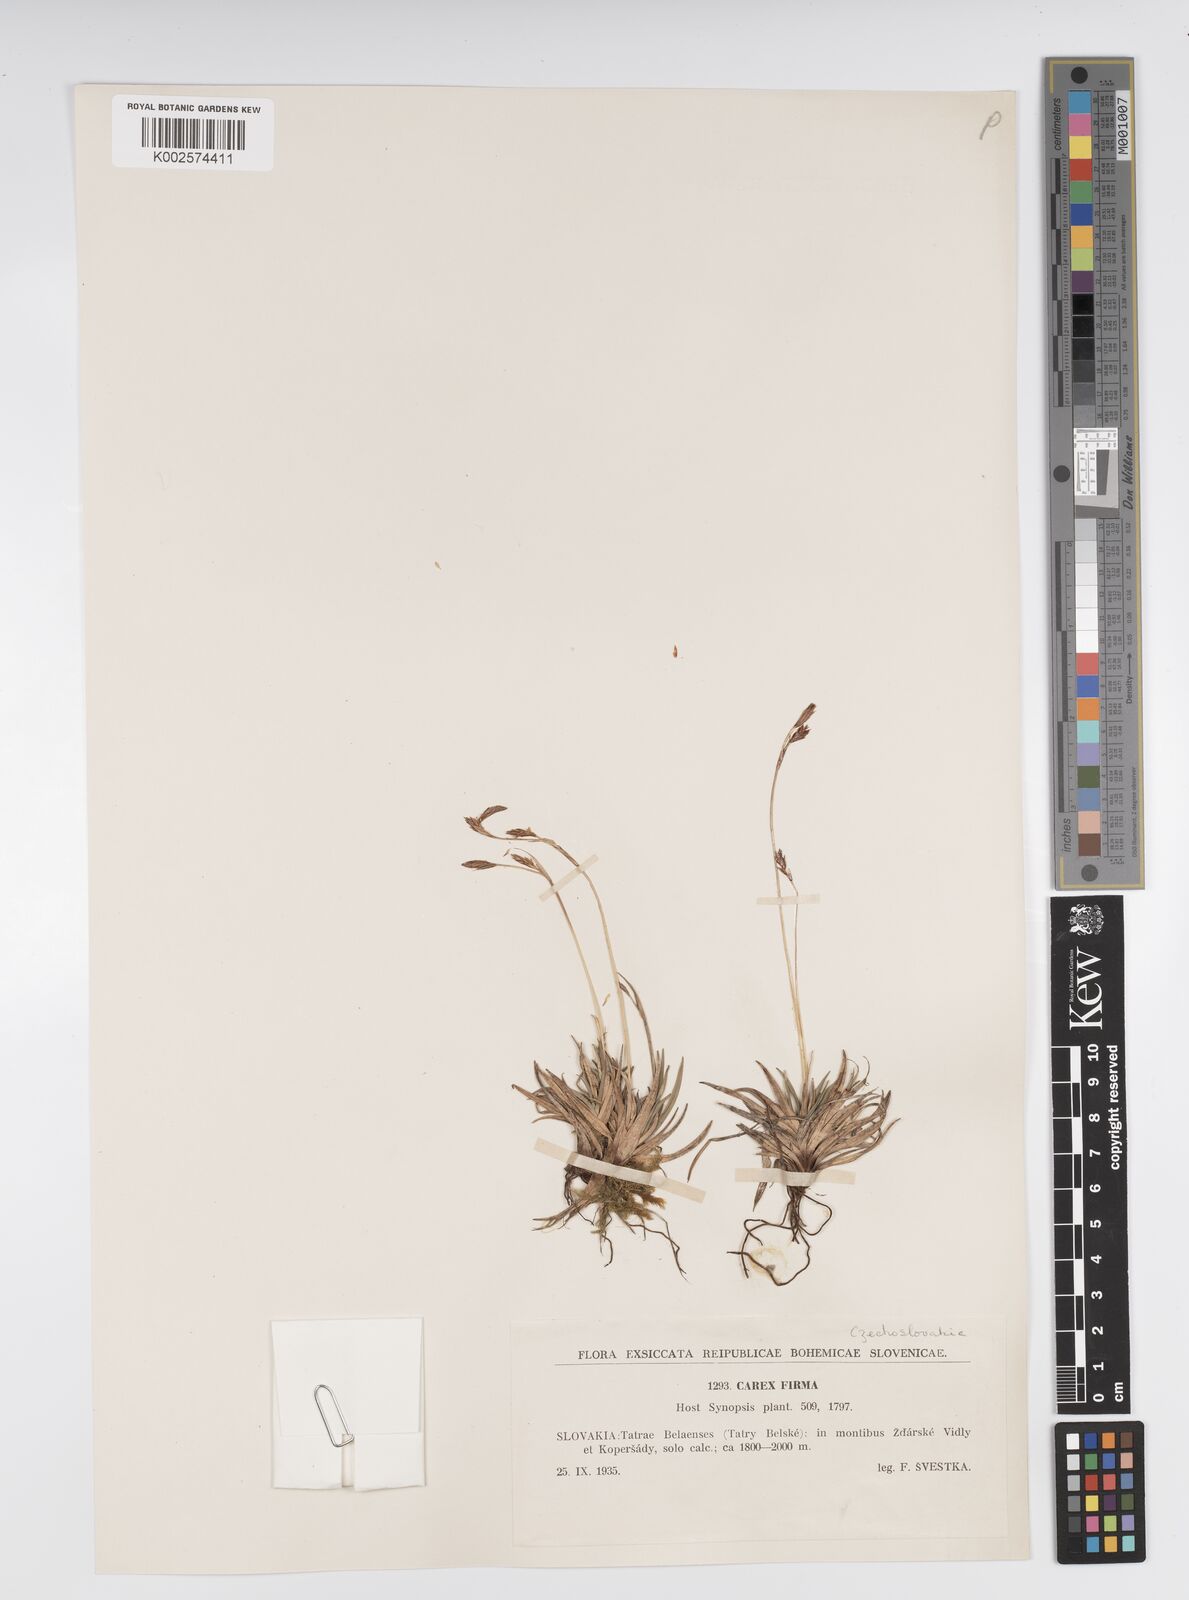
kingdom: Plantae
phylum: Tracheophyta
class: Liliopsida
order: Poales
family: Cyperaceae
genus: Carex
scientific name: Carex firma
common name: Dwarf pillow sedge
